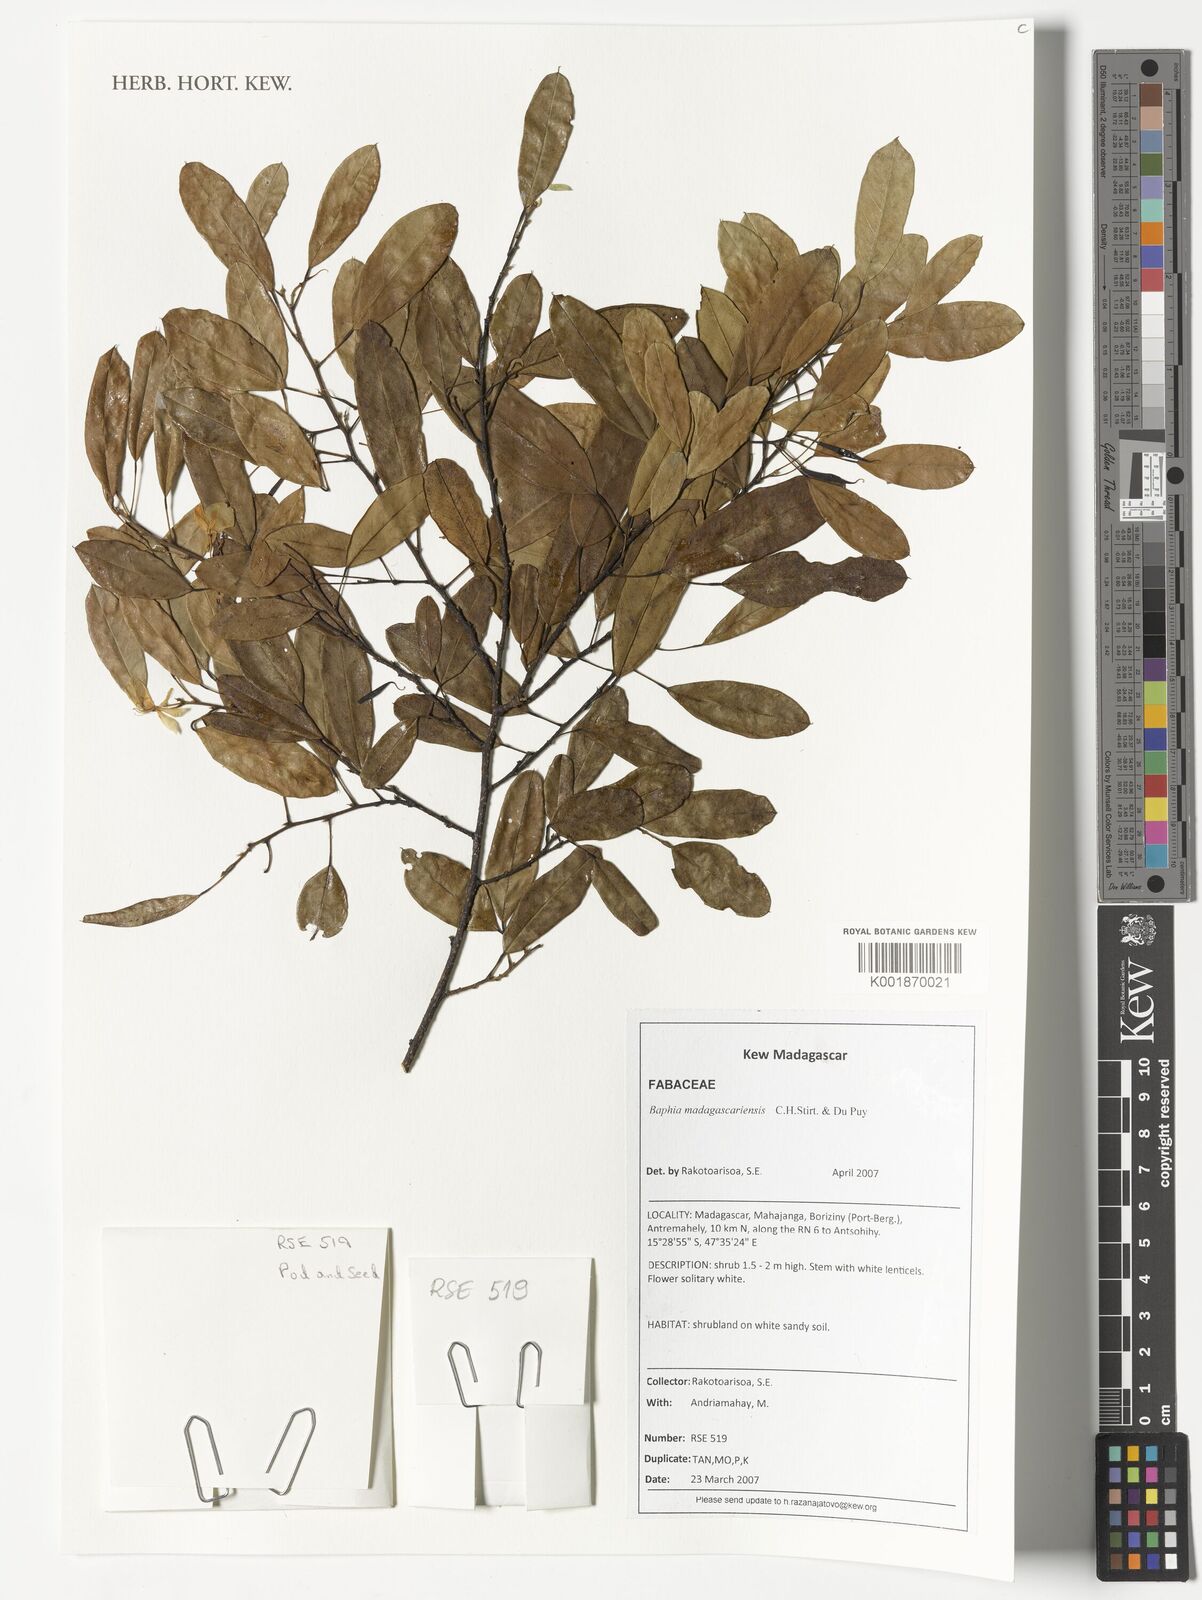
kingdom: Plantae
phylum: Tracheophyta
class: Magnoliopsida
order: Fabales
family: Fabaceae
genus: Baphia
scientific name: Baphia madagascariensis
